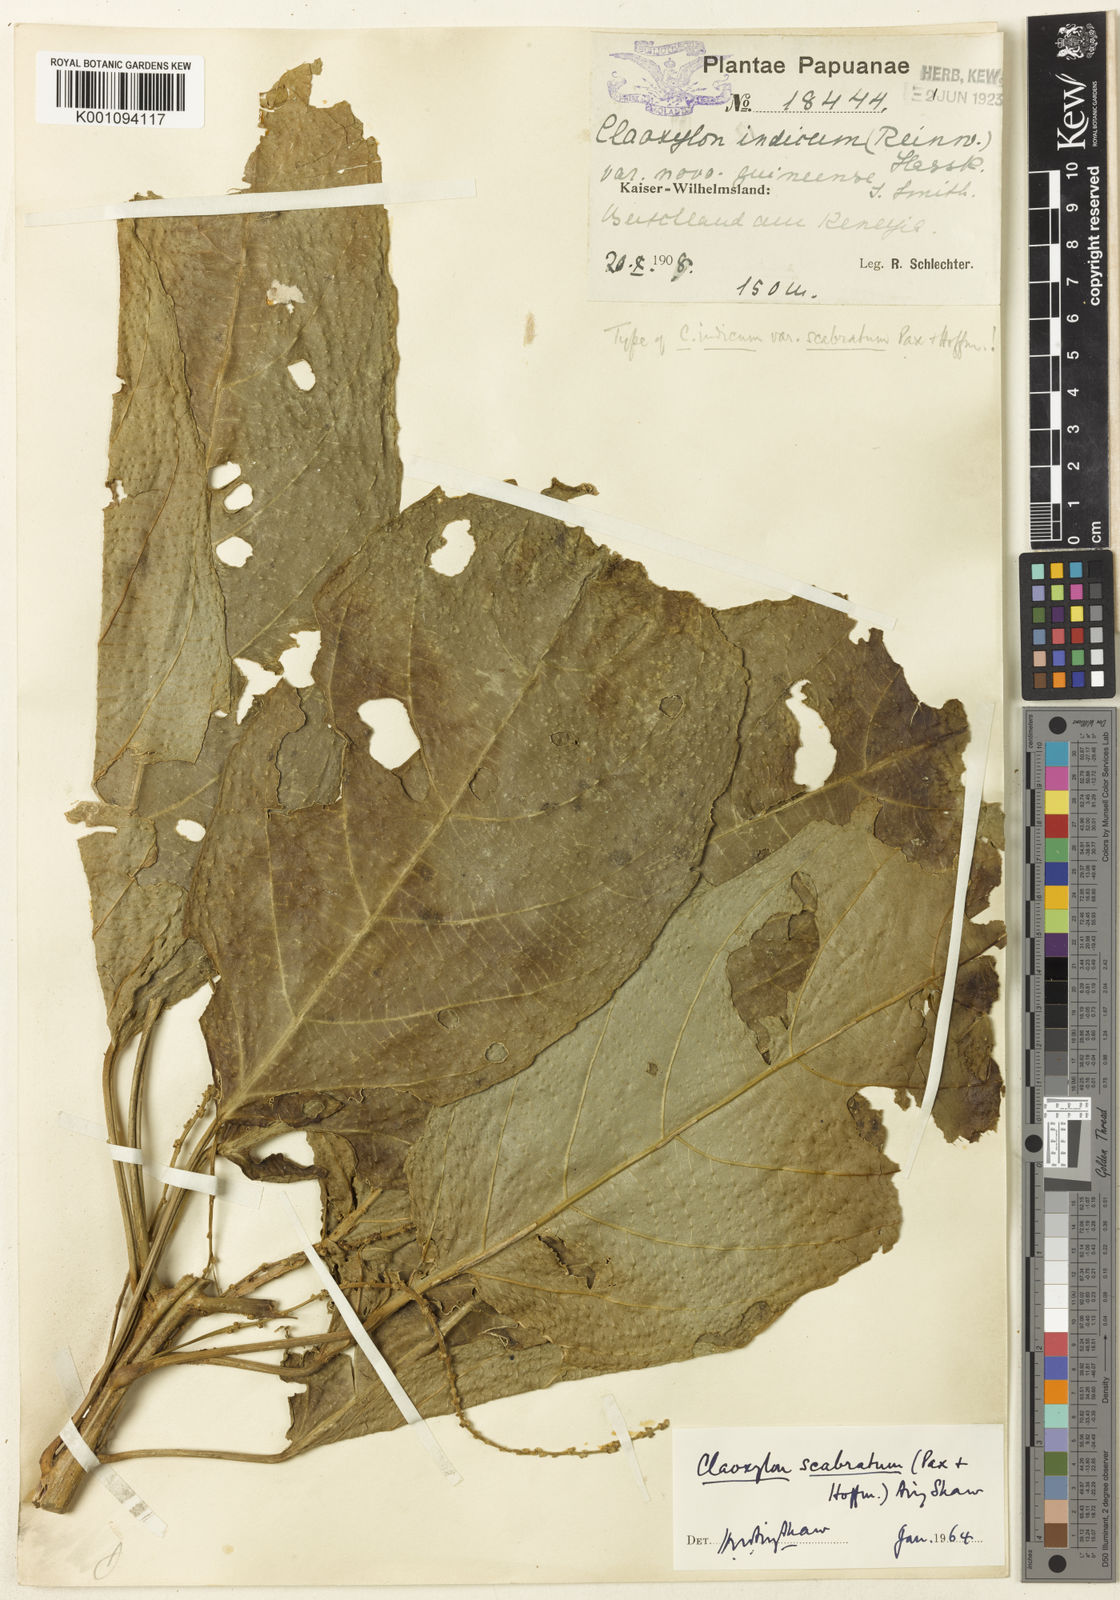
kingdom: Plantae
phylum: Tracheophyta
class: Magnoliopsida
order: Malpighiales
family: Euphorbiaceae
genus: Claoxylon
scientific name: Claoxylon scabratum
